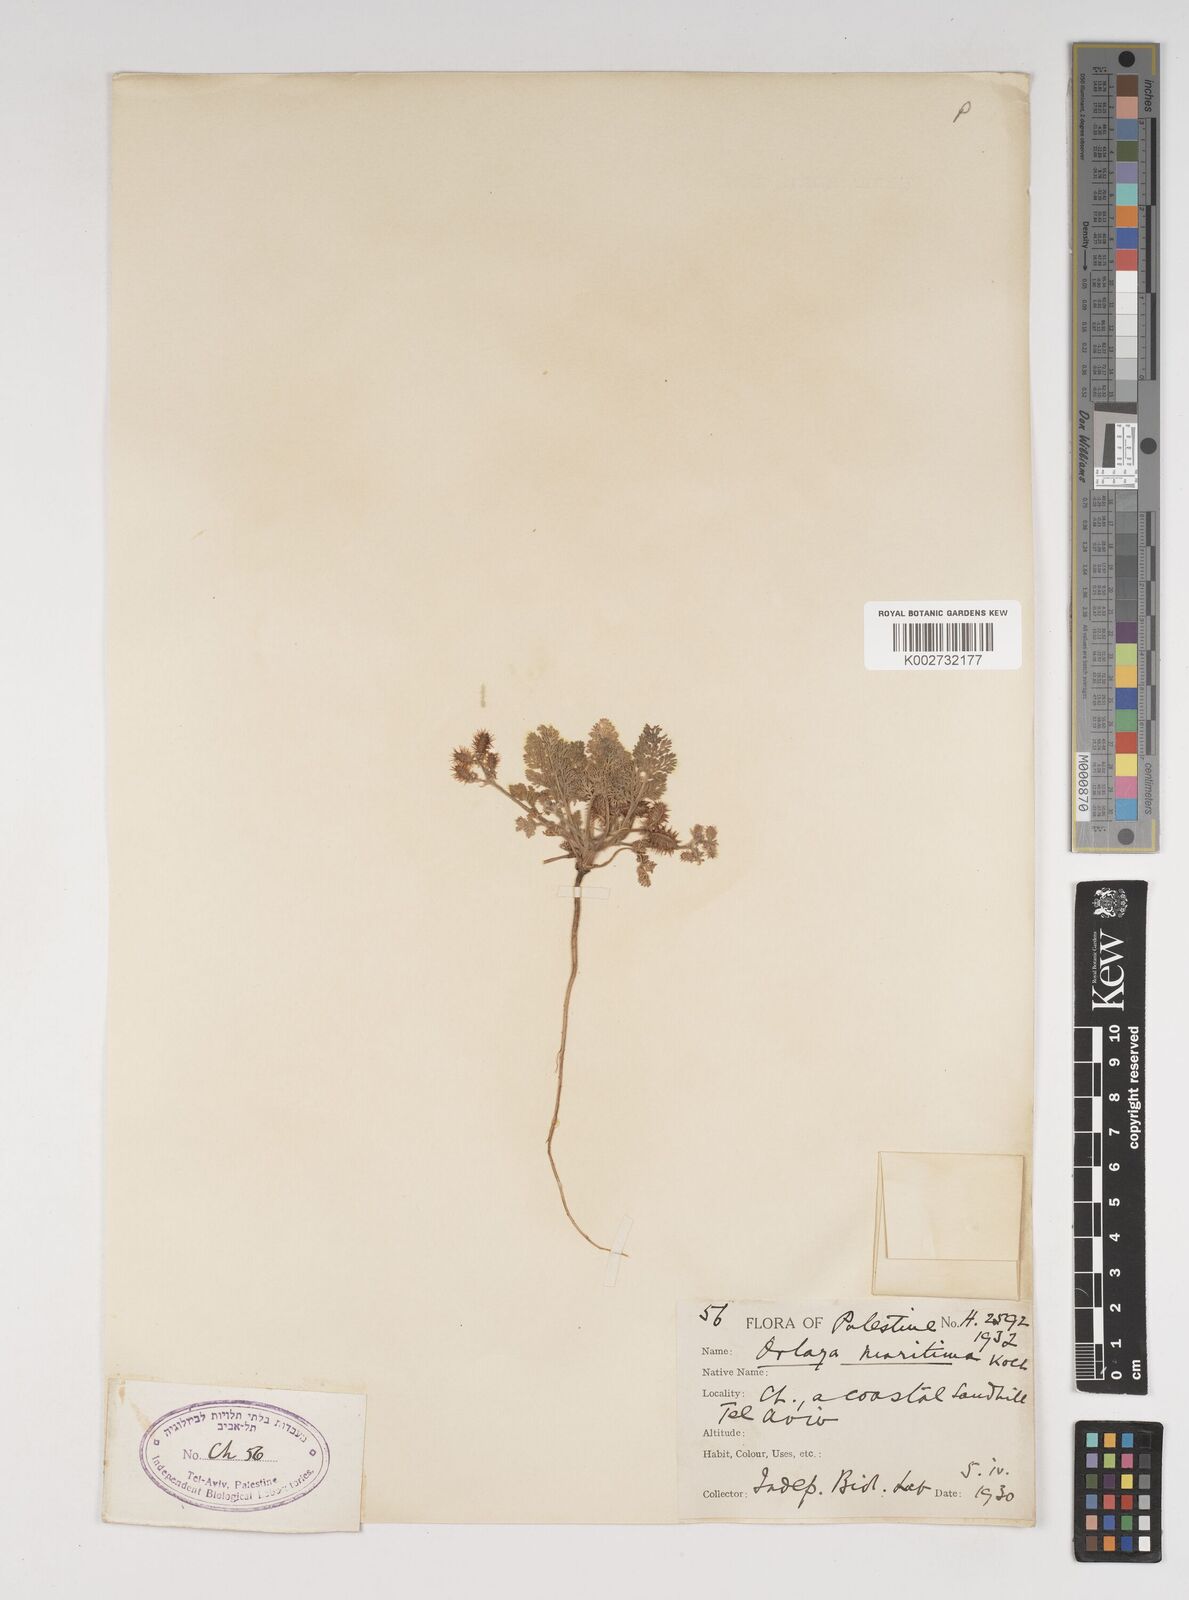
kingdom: Plantae
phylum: Tracheophyta
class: Magnoliopsida
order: Apiales
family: Apiaceae
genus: Daucus
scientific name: Daucus pumilus
